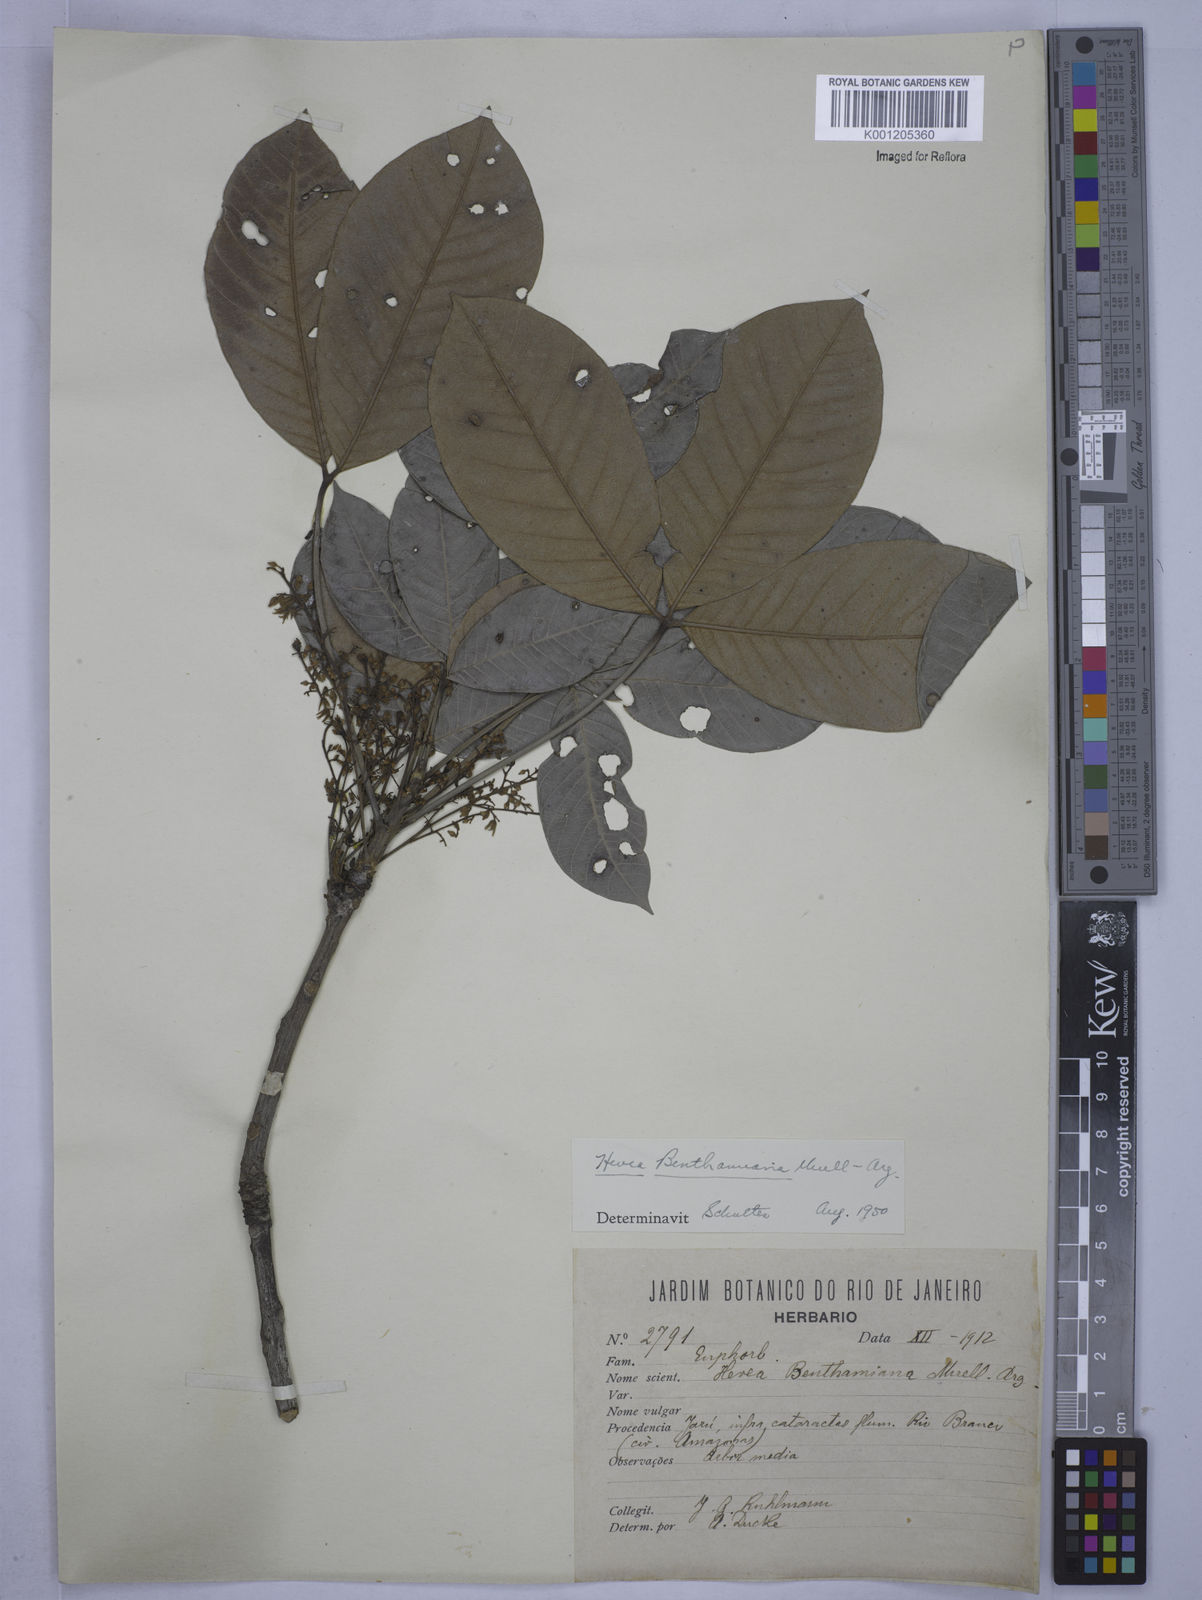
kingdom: Plantae
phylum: Tracheophyta
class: Magnoliopsida
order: Malpighiales
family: Euphorbiaceae
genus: Hevea
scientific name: Hevea
